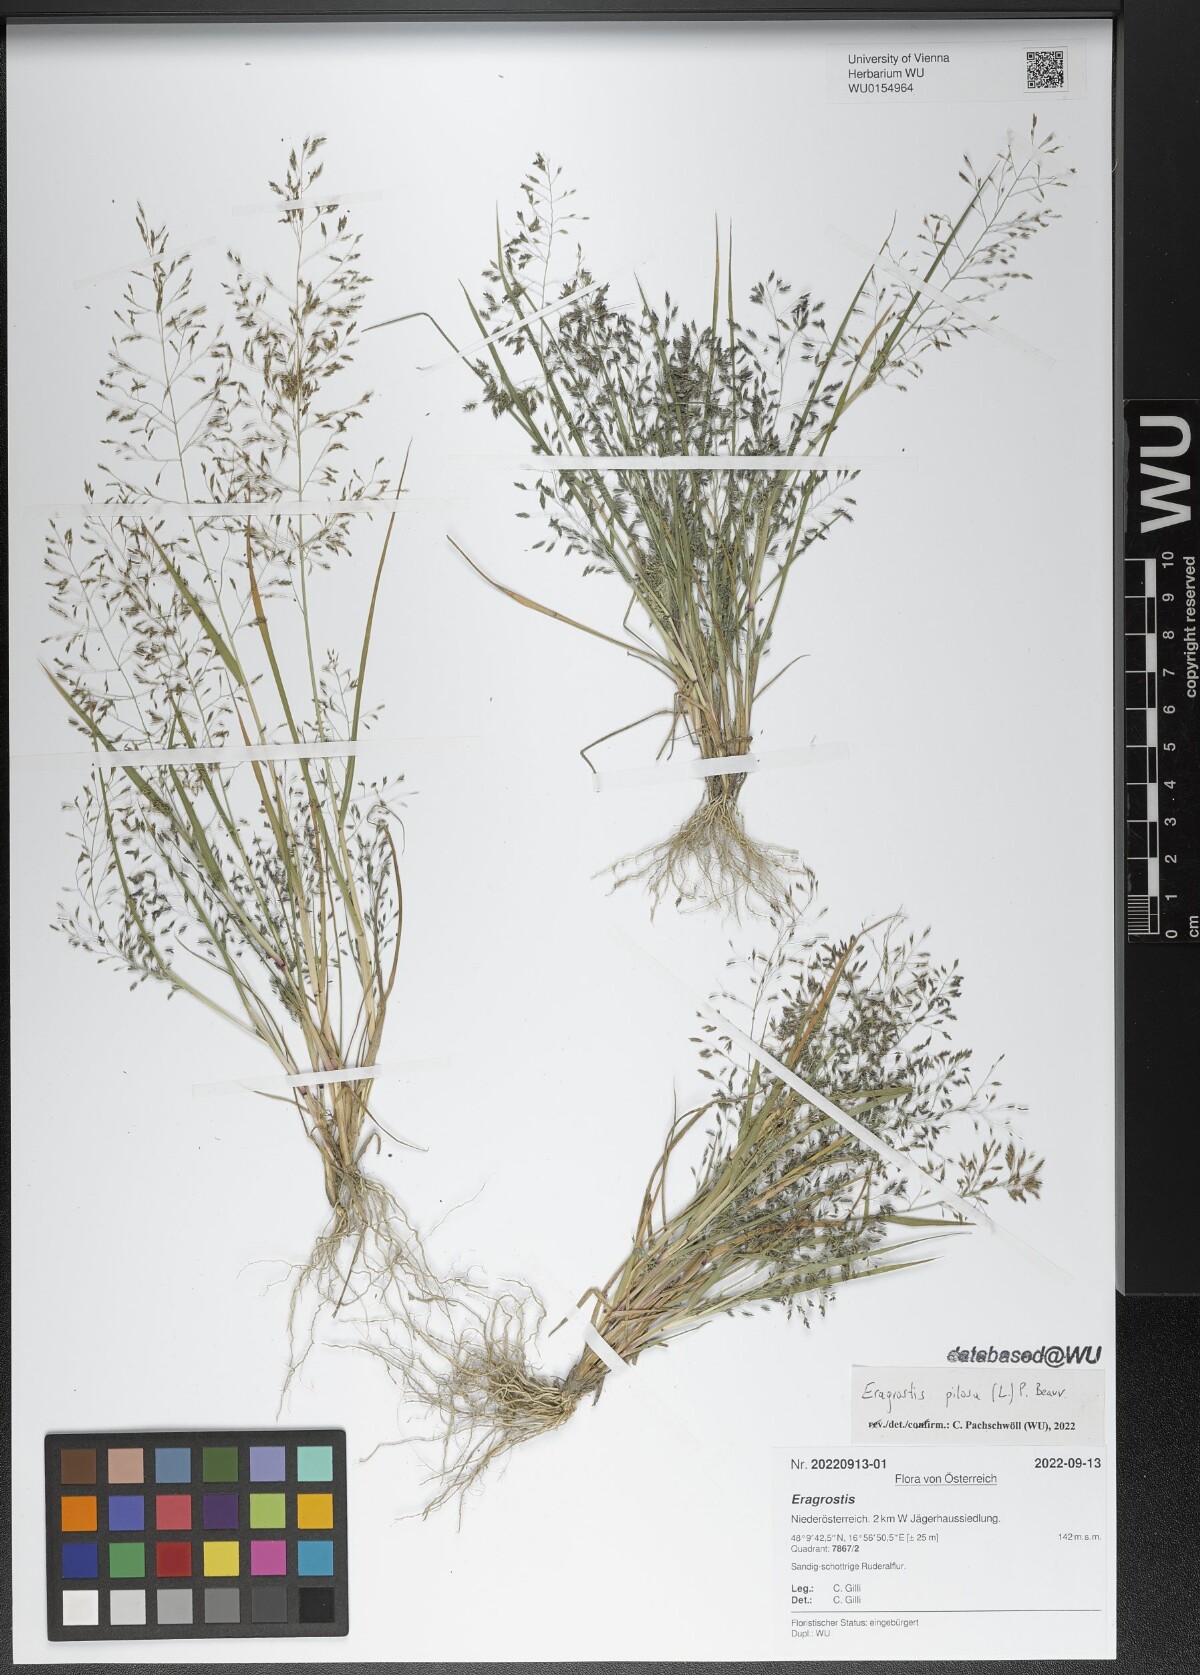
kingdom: Plantae
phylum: Tracheophyta
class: Liliopsida
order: Poales
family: Poaceae
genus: Eragrostis
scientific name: Eragrostis pilosa
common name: Indian lovegrass
